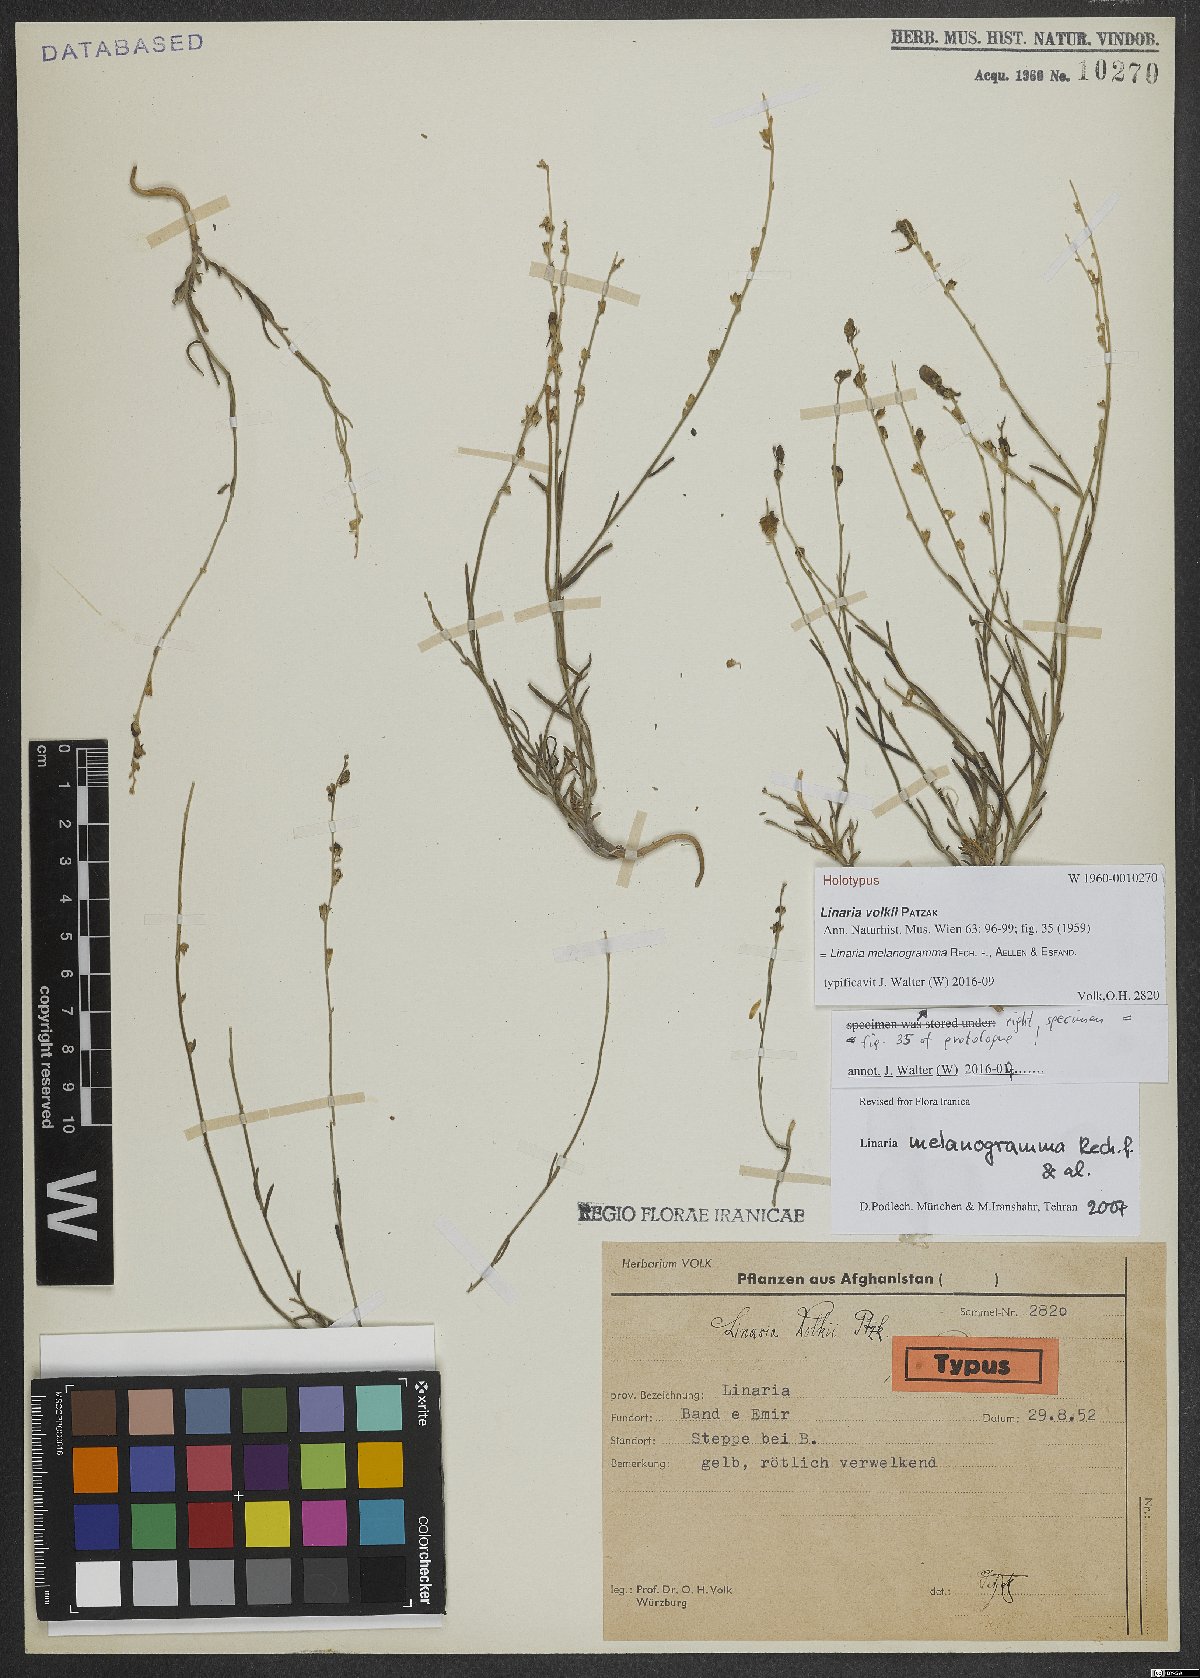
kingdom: Plantae
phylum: Tracheophyta
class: Magnoliopsida
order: Lamiales
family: Plantaginaceae
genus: Linaria
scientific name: Linaria melanogramma
